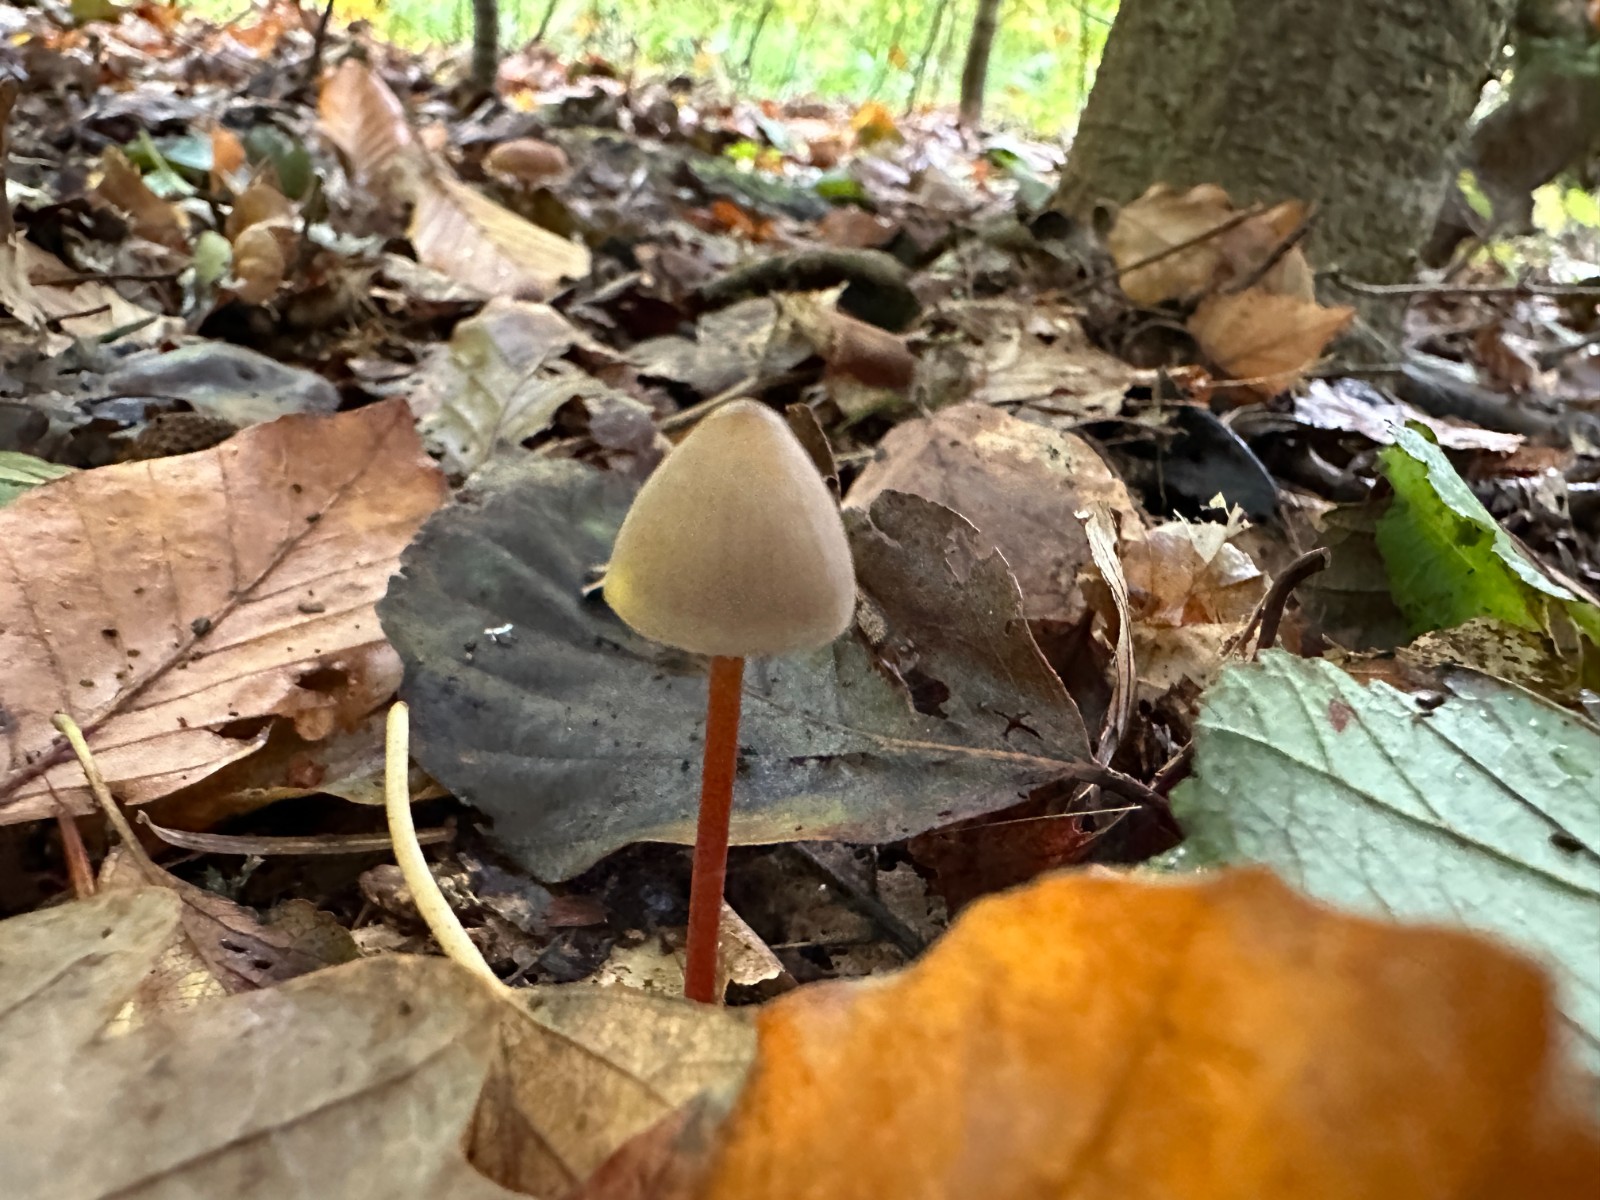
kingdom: Fungi
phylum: Basidiomycota
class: Agaricomycetes
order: Agaricales
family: Mycenaceae
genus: Mycena
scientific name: Mycena crocata
